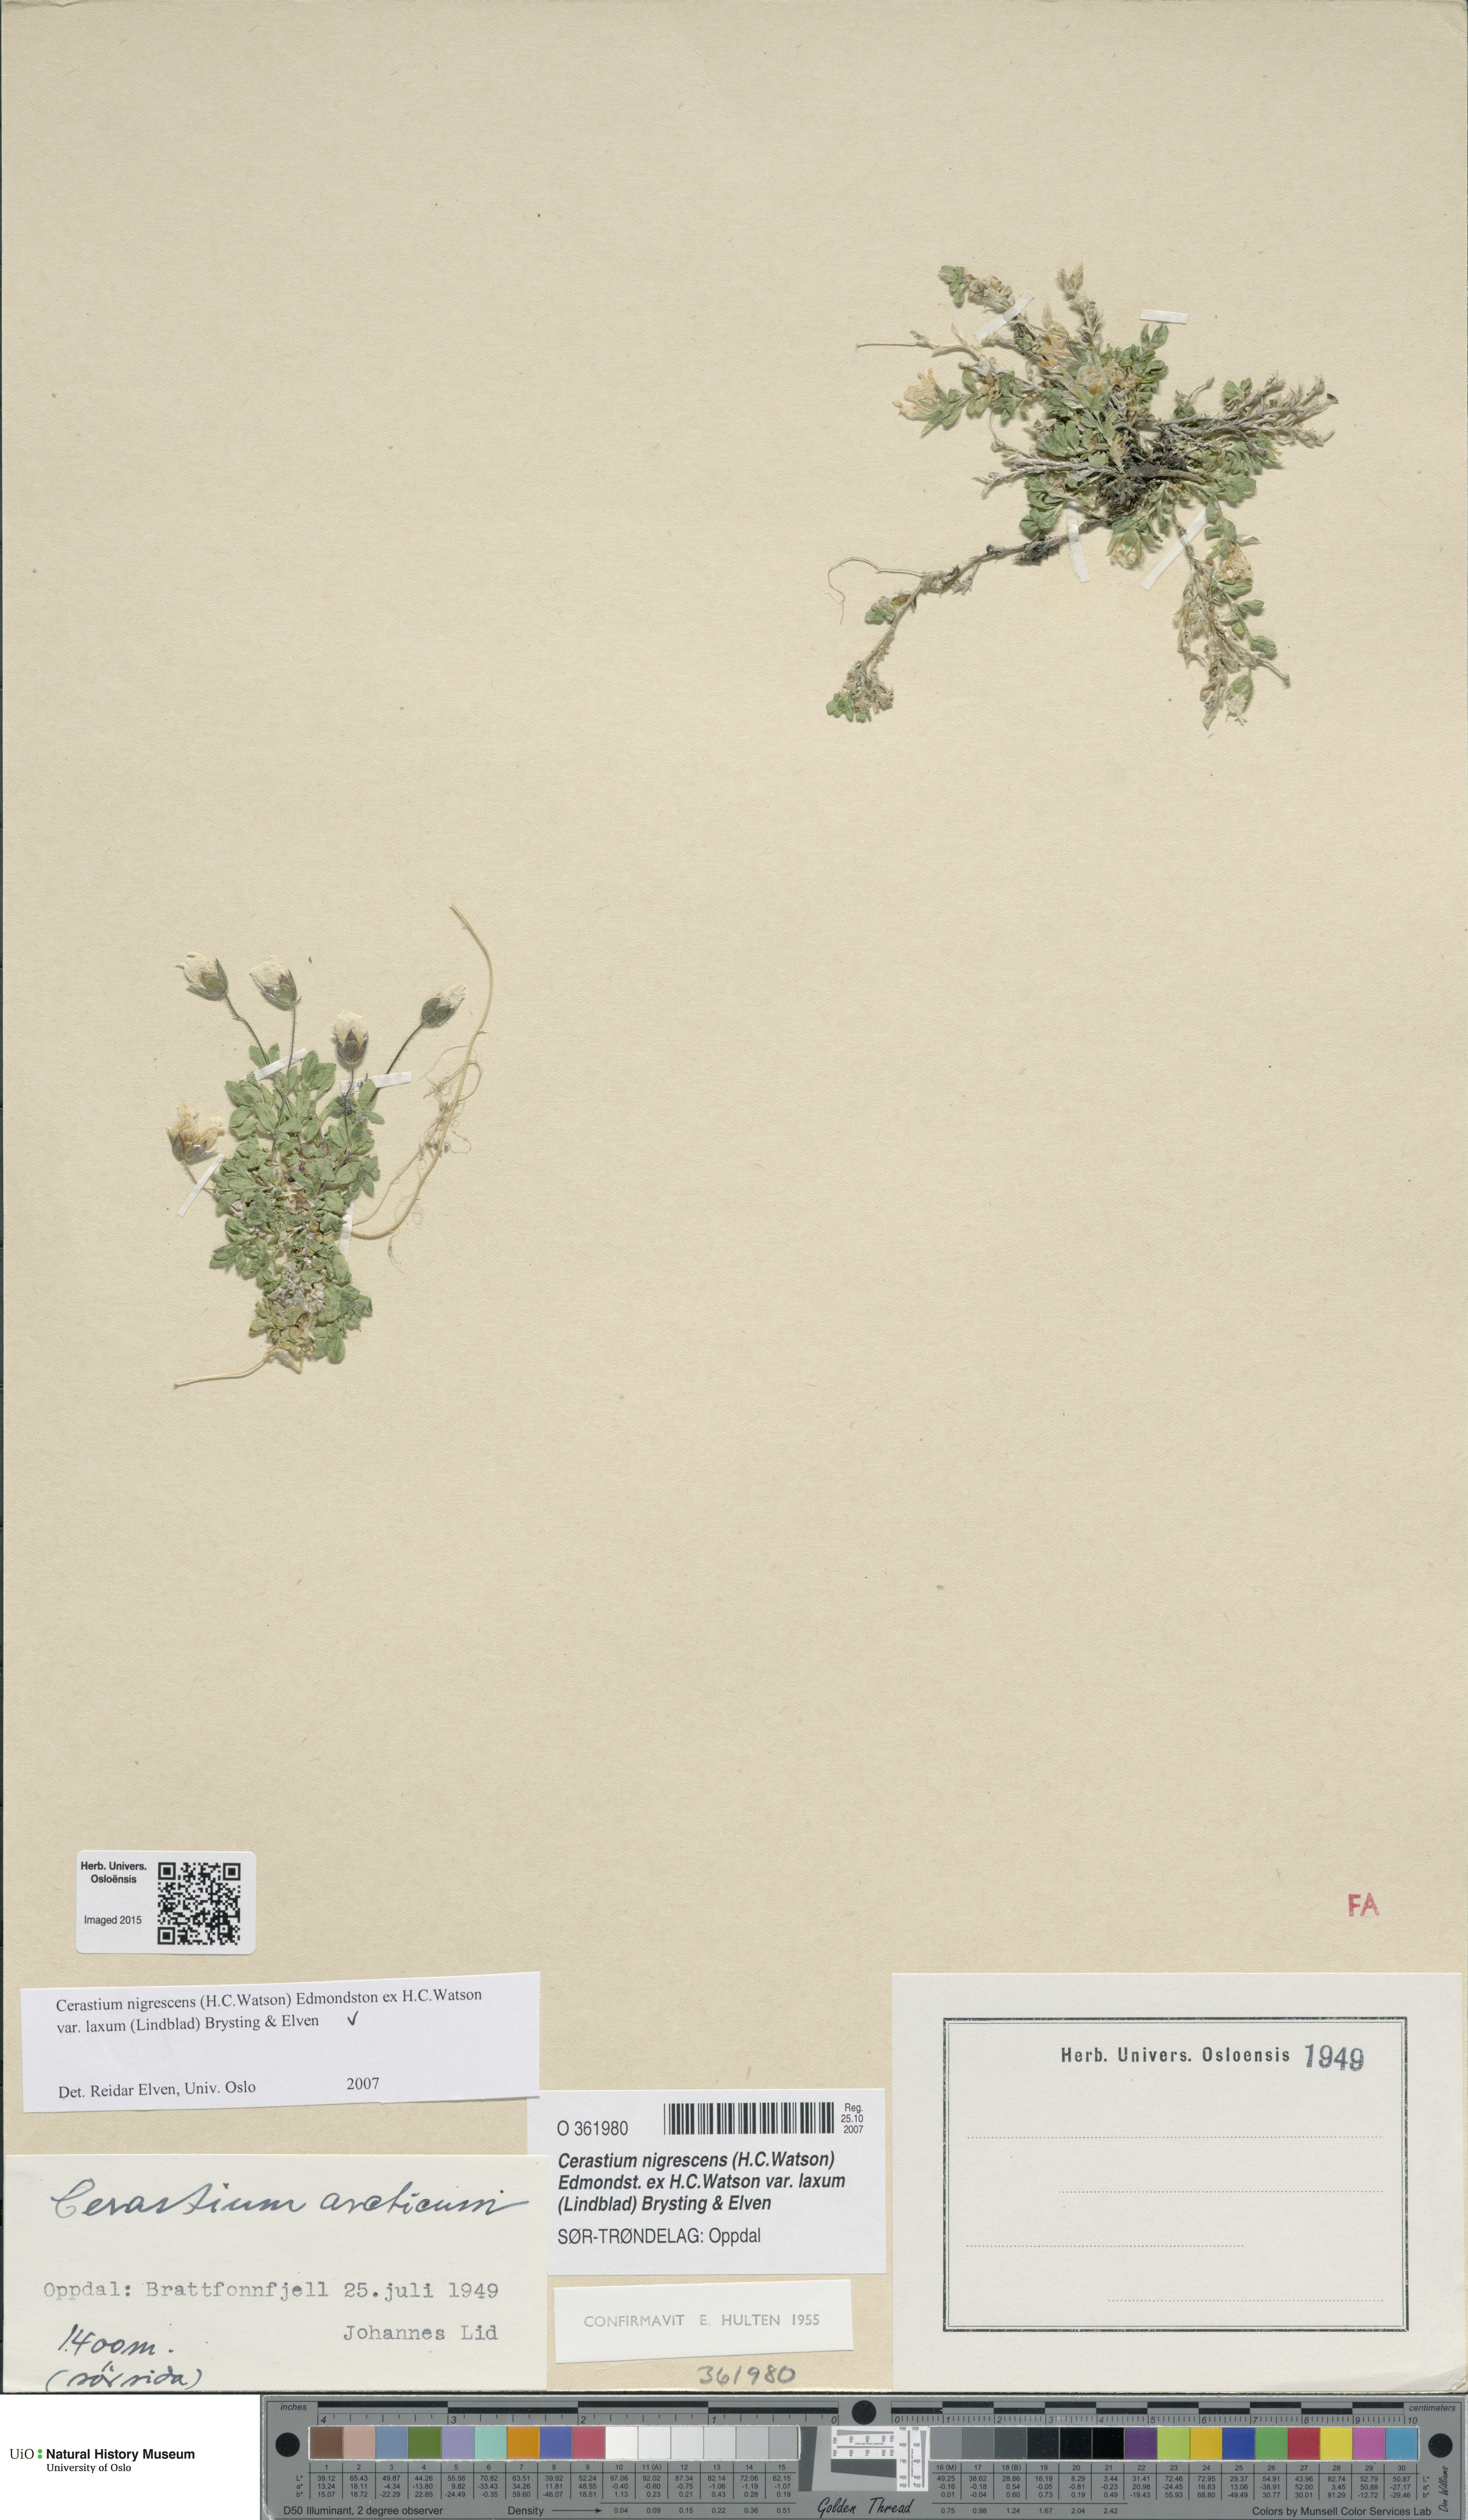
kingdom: Plantae
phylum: Tracheophyta
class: Magnoliopsida
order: Caryophyllales
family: Caryophyllaceae
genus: Cerastium
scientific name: Cerastium nigrescens
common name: Shetland mouse-ear
